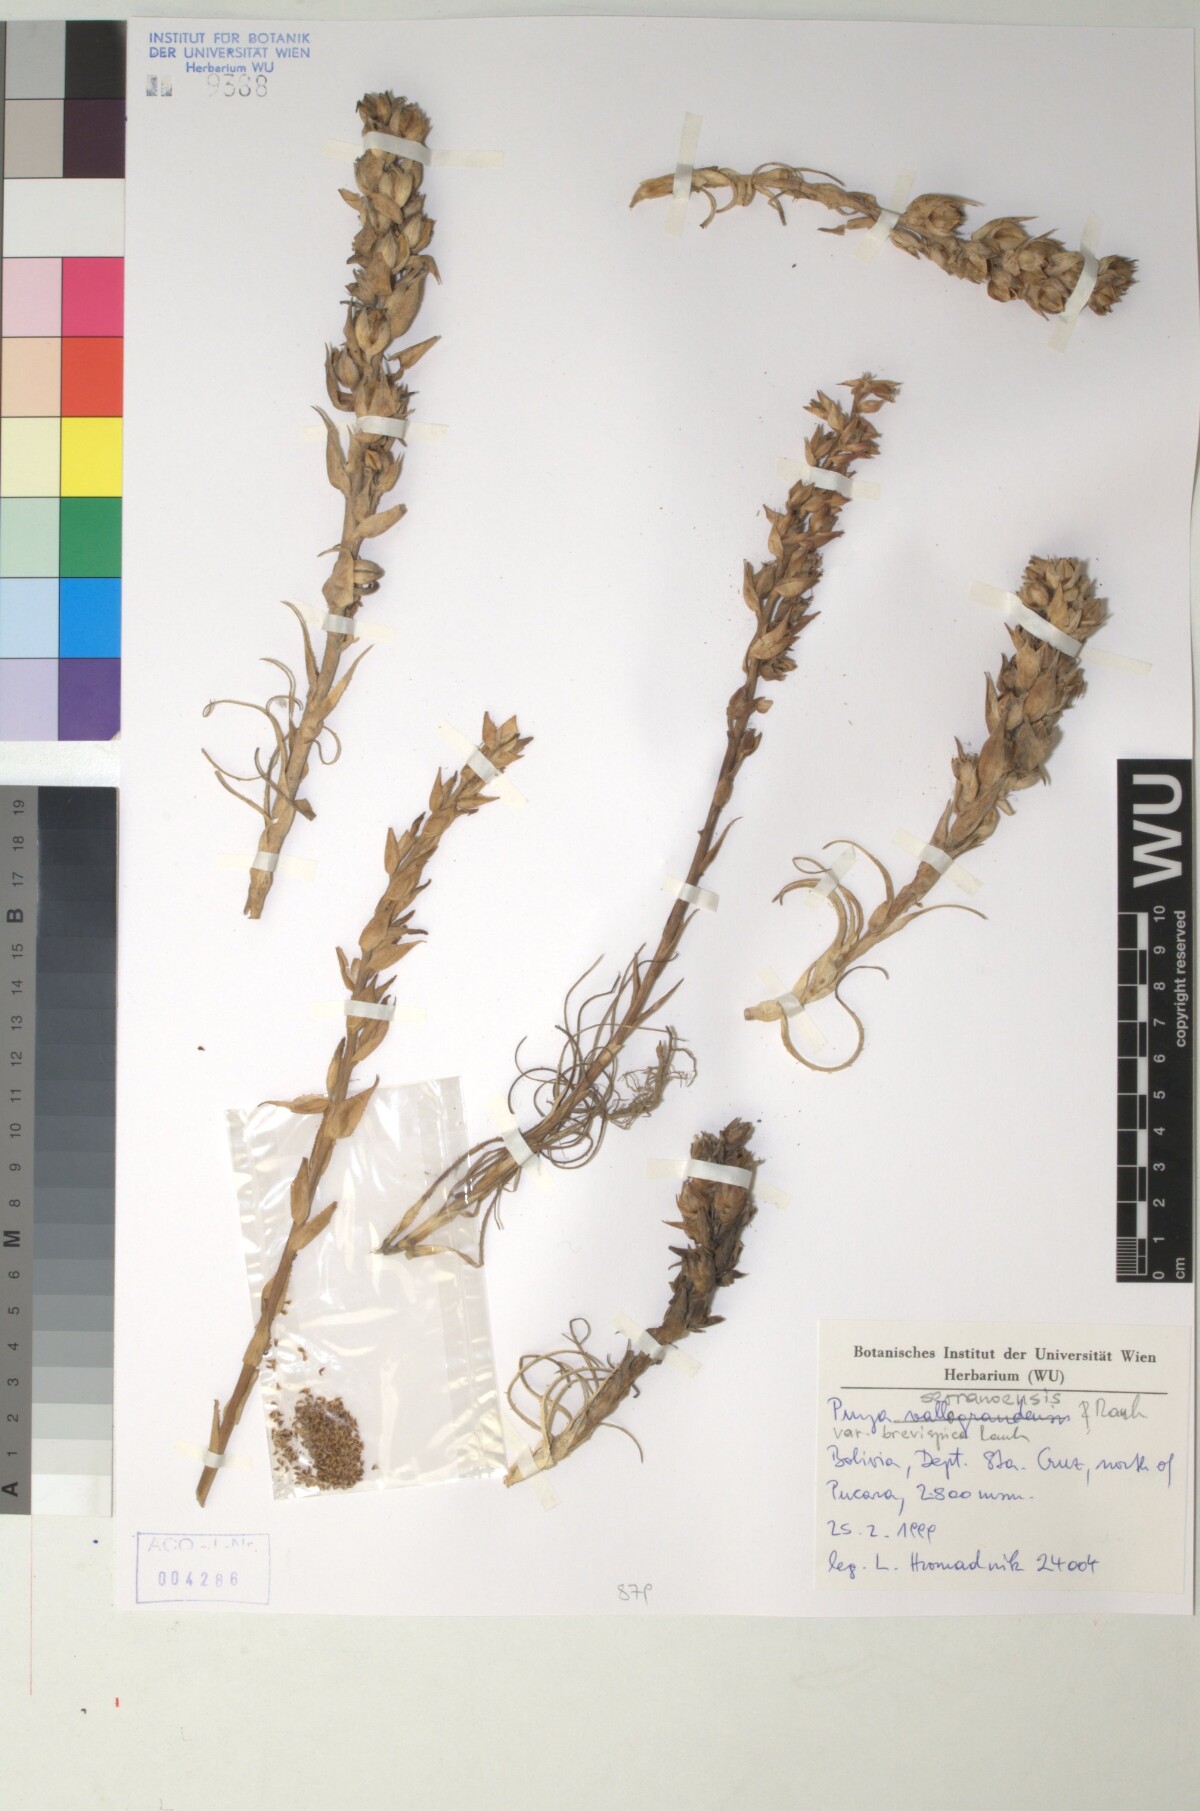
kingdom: Plantae
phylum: Tracheophyta
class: Liliopsida
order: Poales
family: Bromeliaceae
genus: Puya
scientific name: Puya serranoensis
